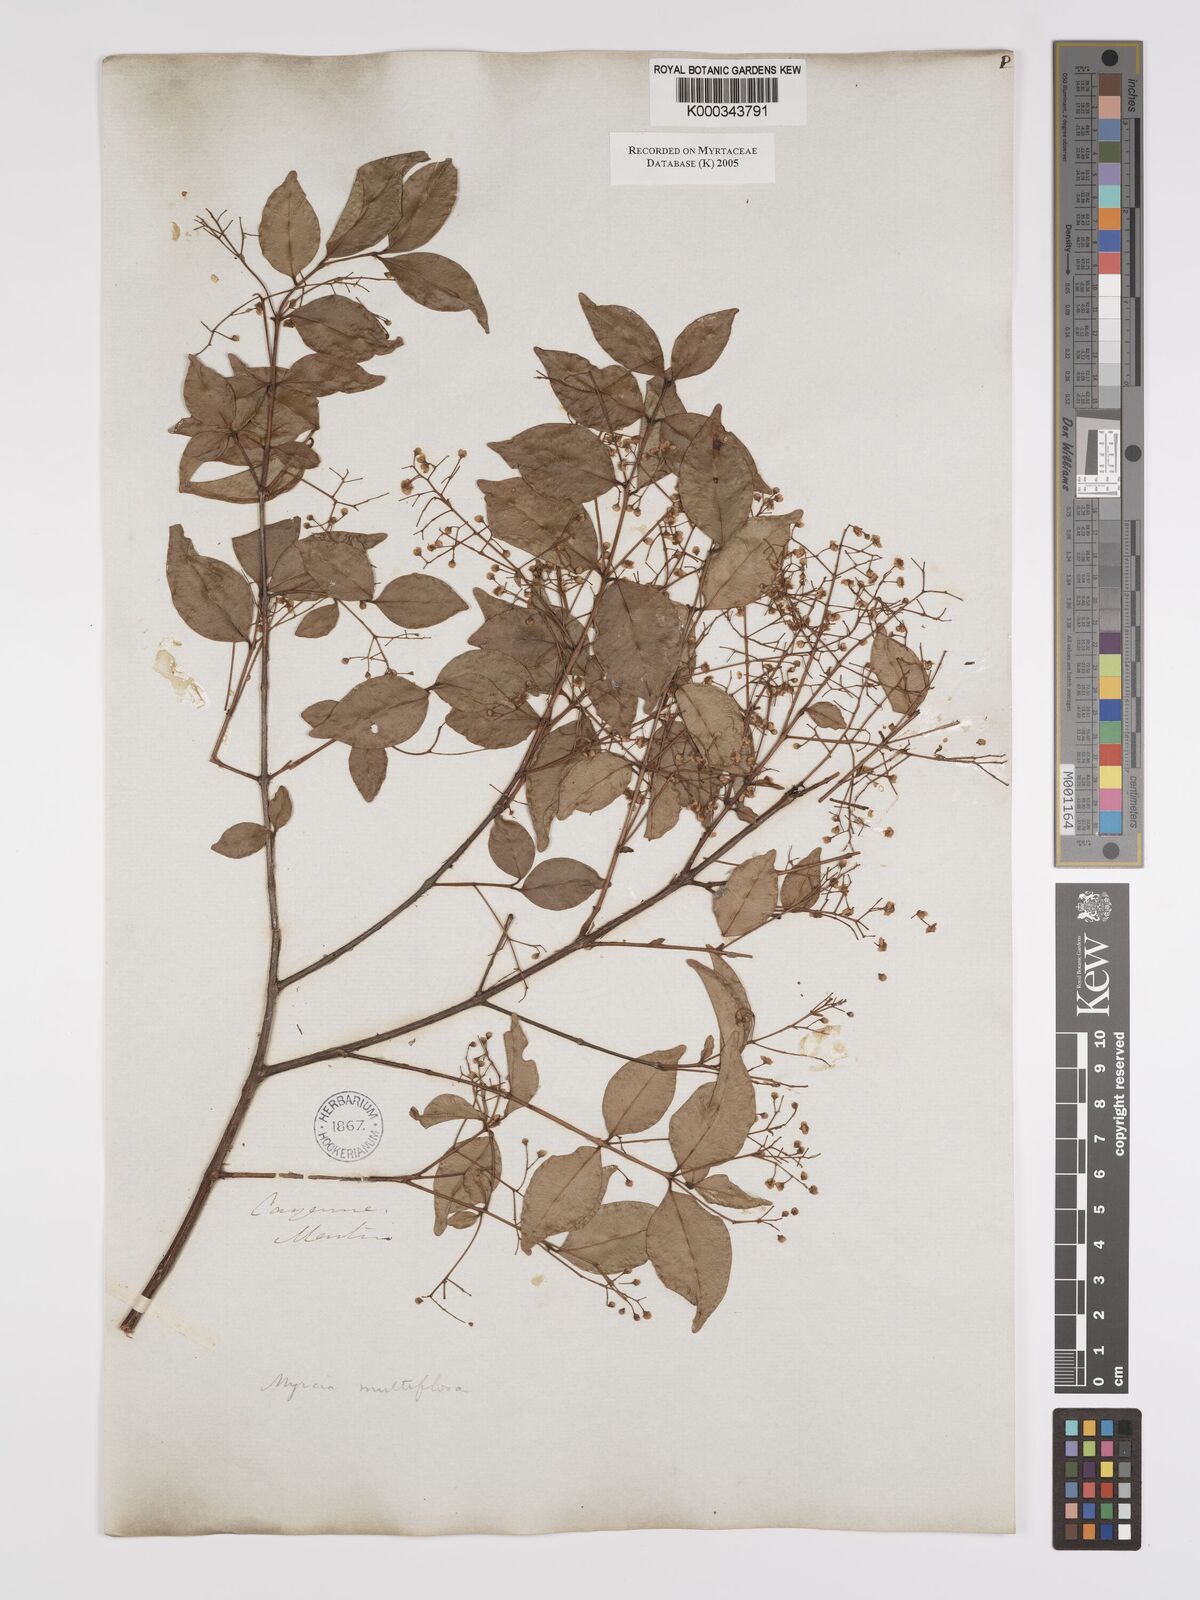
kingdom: Plantae
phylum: Tracheophyta
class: Magnoliopsida
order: Myrtales
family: Myrtaceae
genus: Myrcia
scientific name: Myrcia multiflora
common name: Pedra hume
